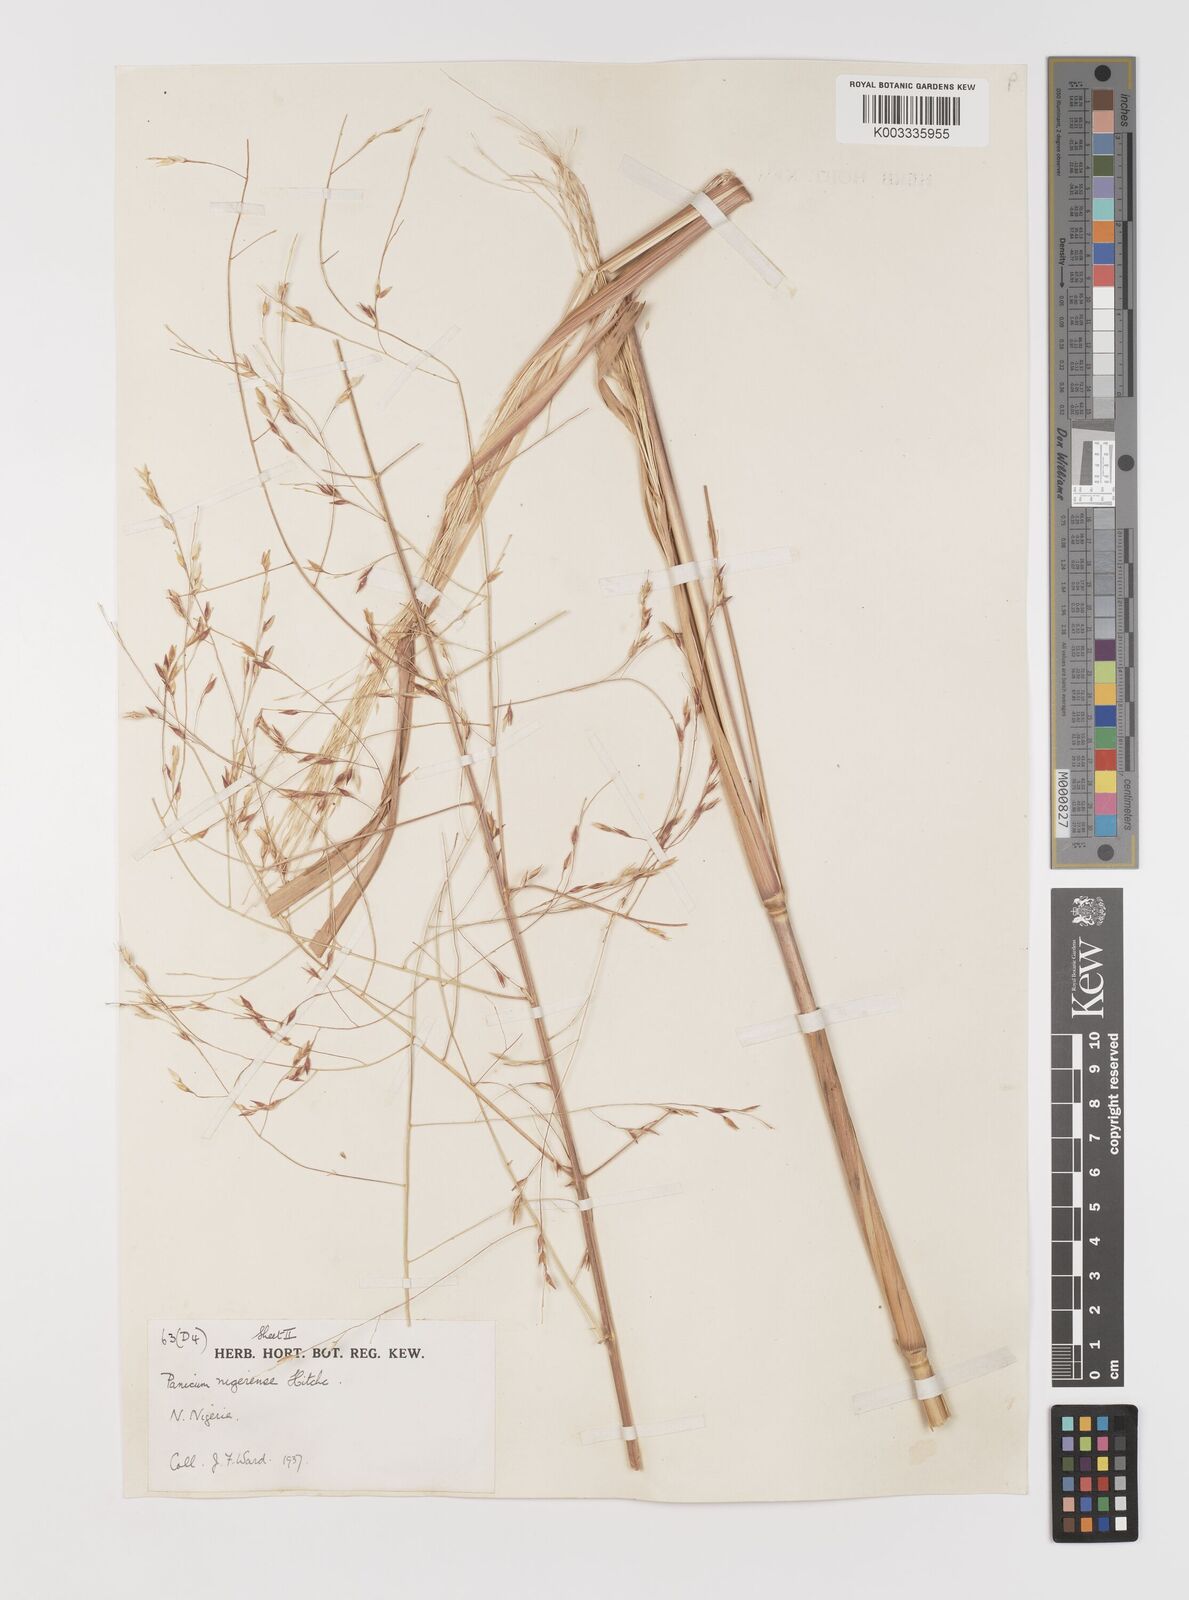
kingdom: Plantae
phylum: Tracheophyta
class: Liliopsida
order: Poales
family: Poaceae
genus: Panicum
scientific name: Panicum nigerense
